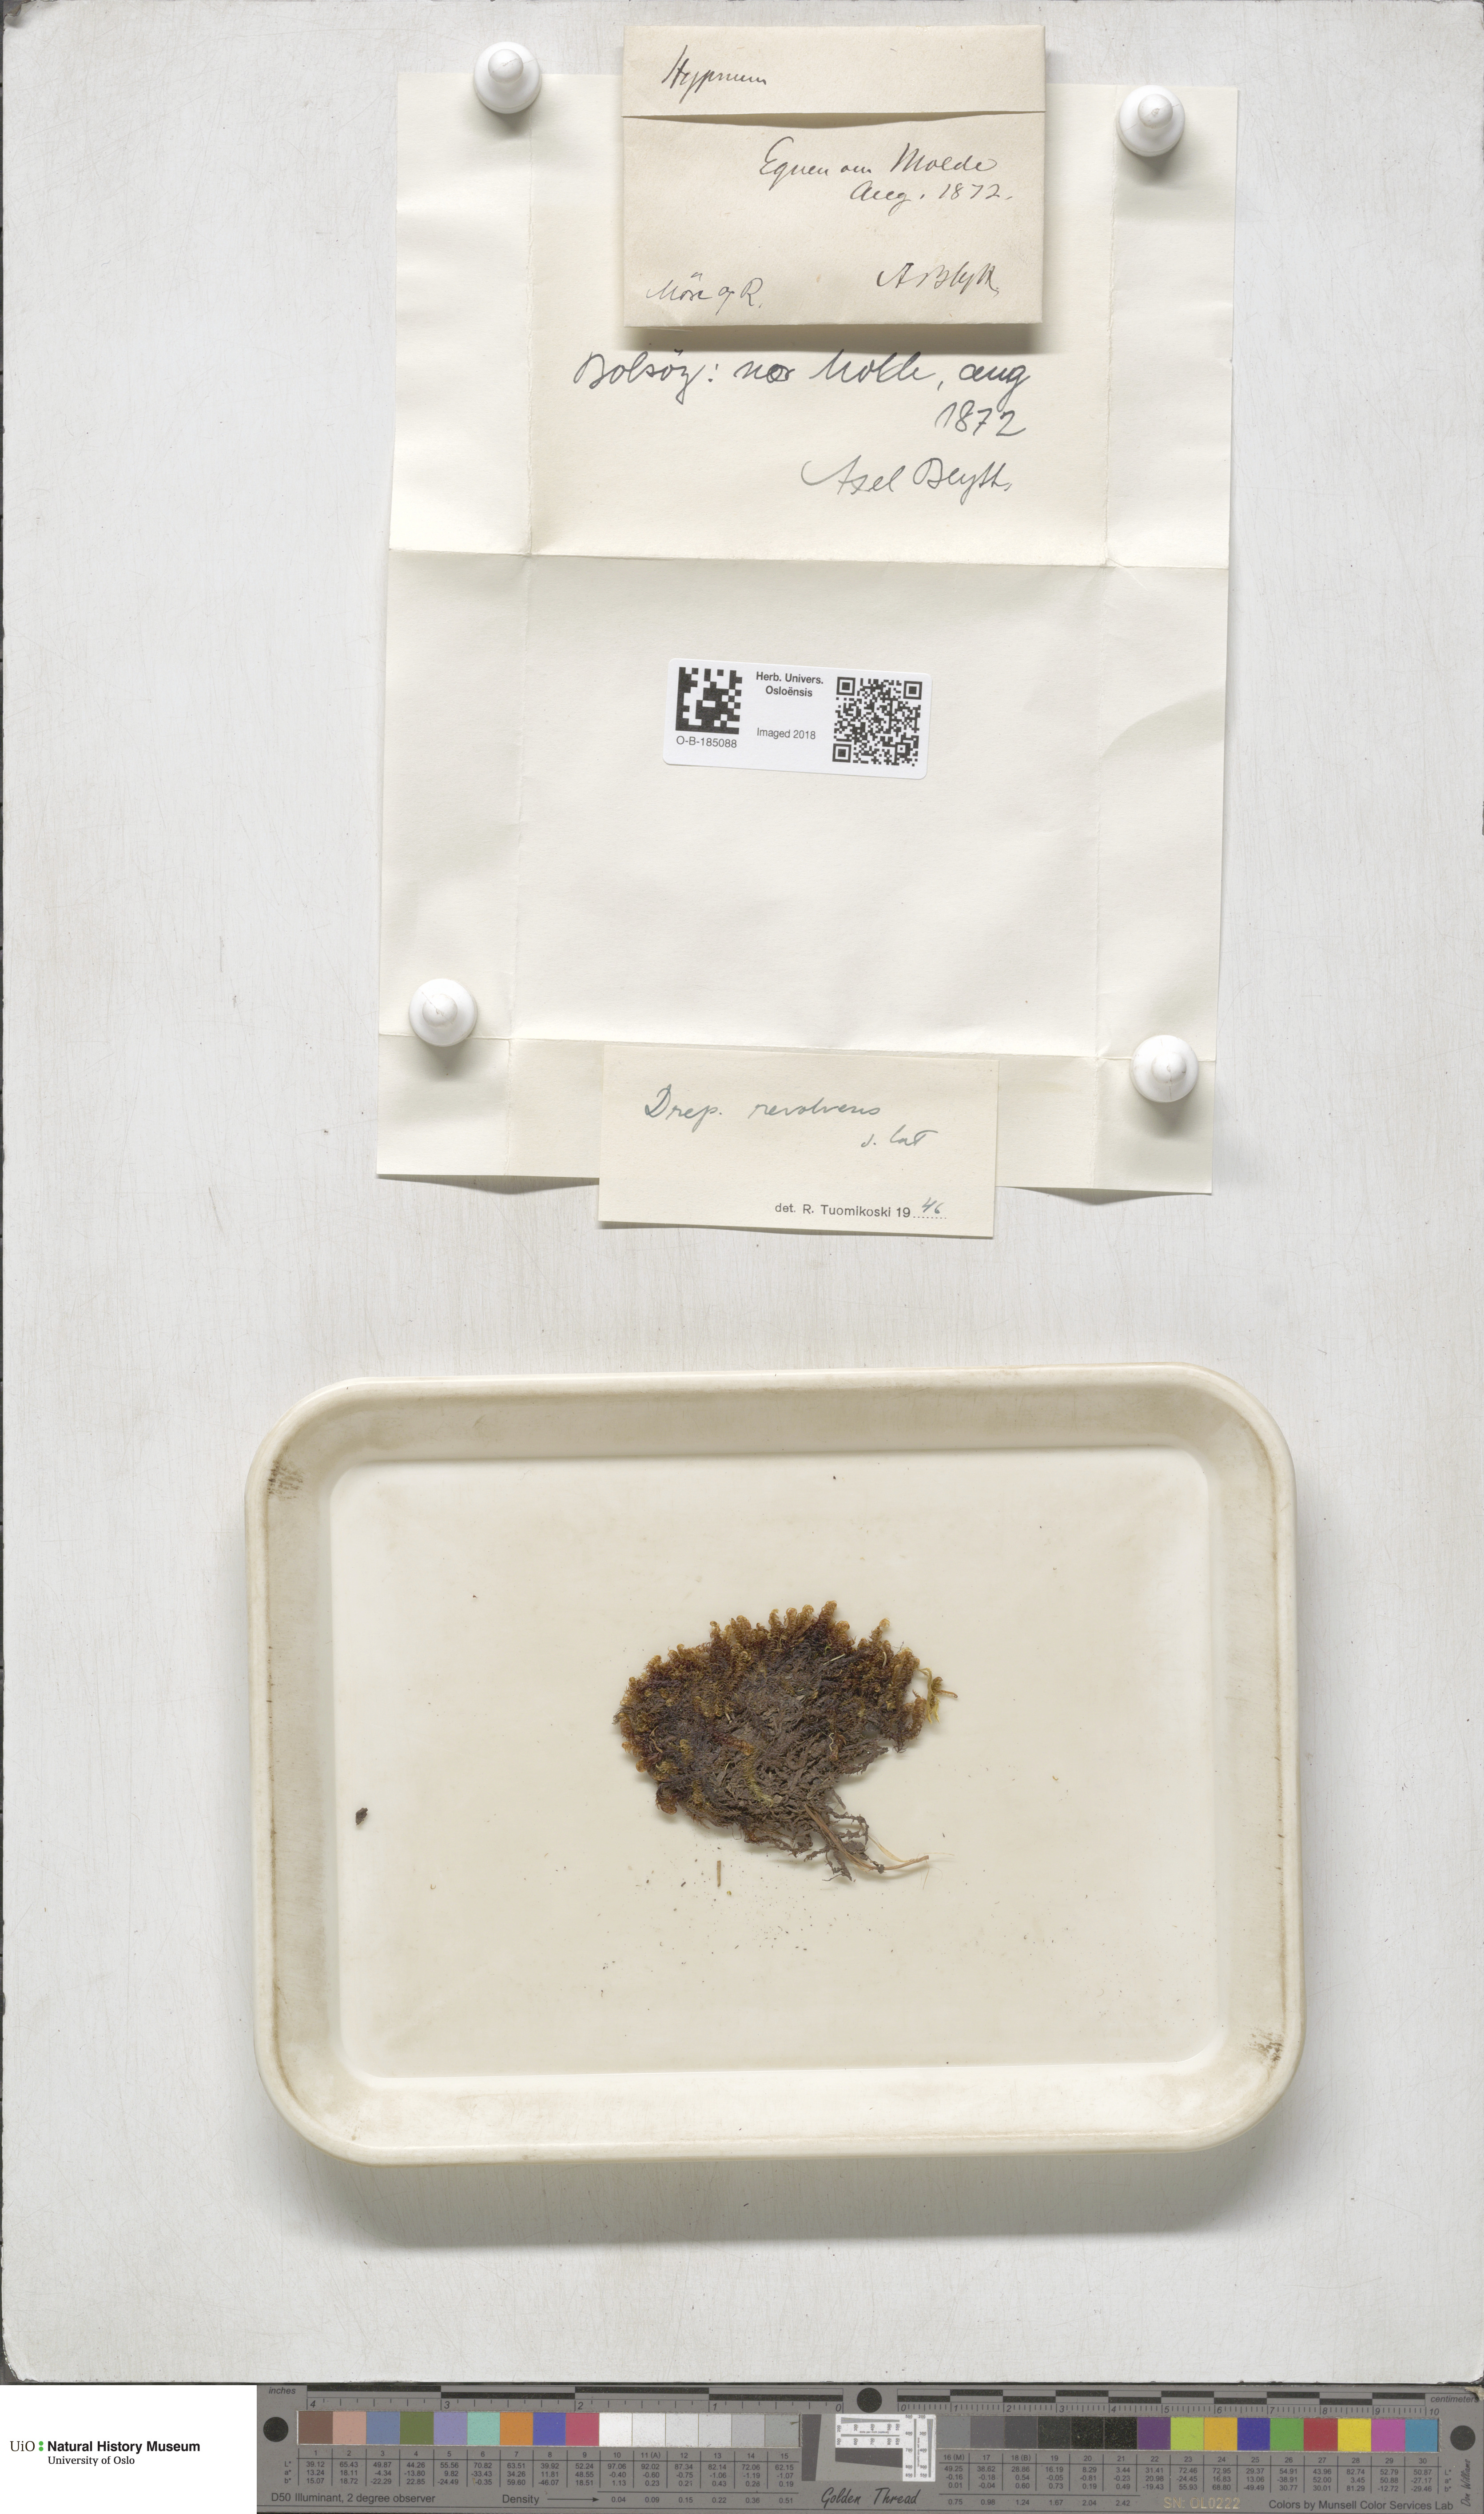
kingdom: Plantae
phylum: Bryophyta
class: Bryopsida
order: Hypnales
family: Scorpidiaceae
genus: Scorpidium
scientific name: Scorpidium revolvens
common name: Rusty hook moss
